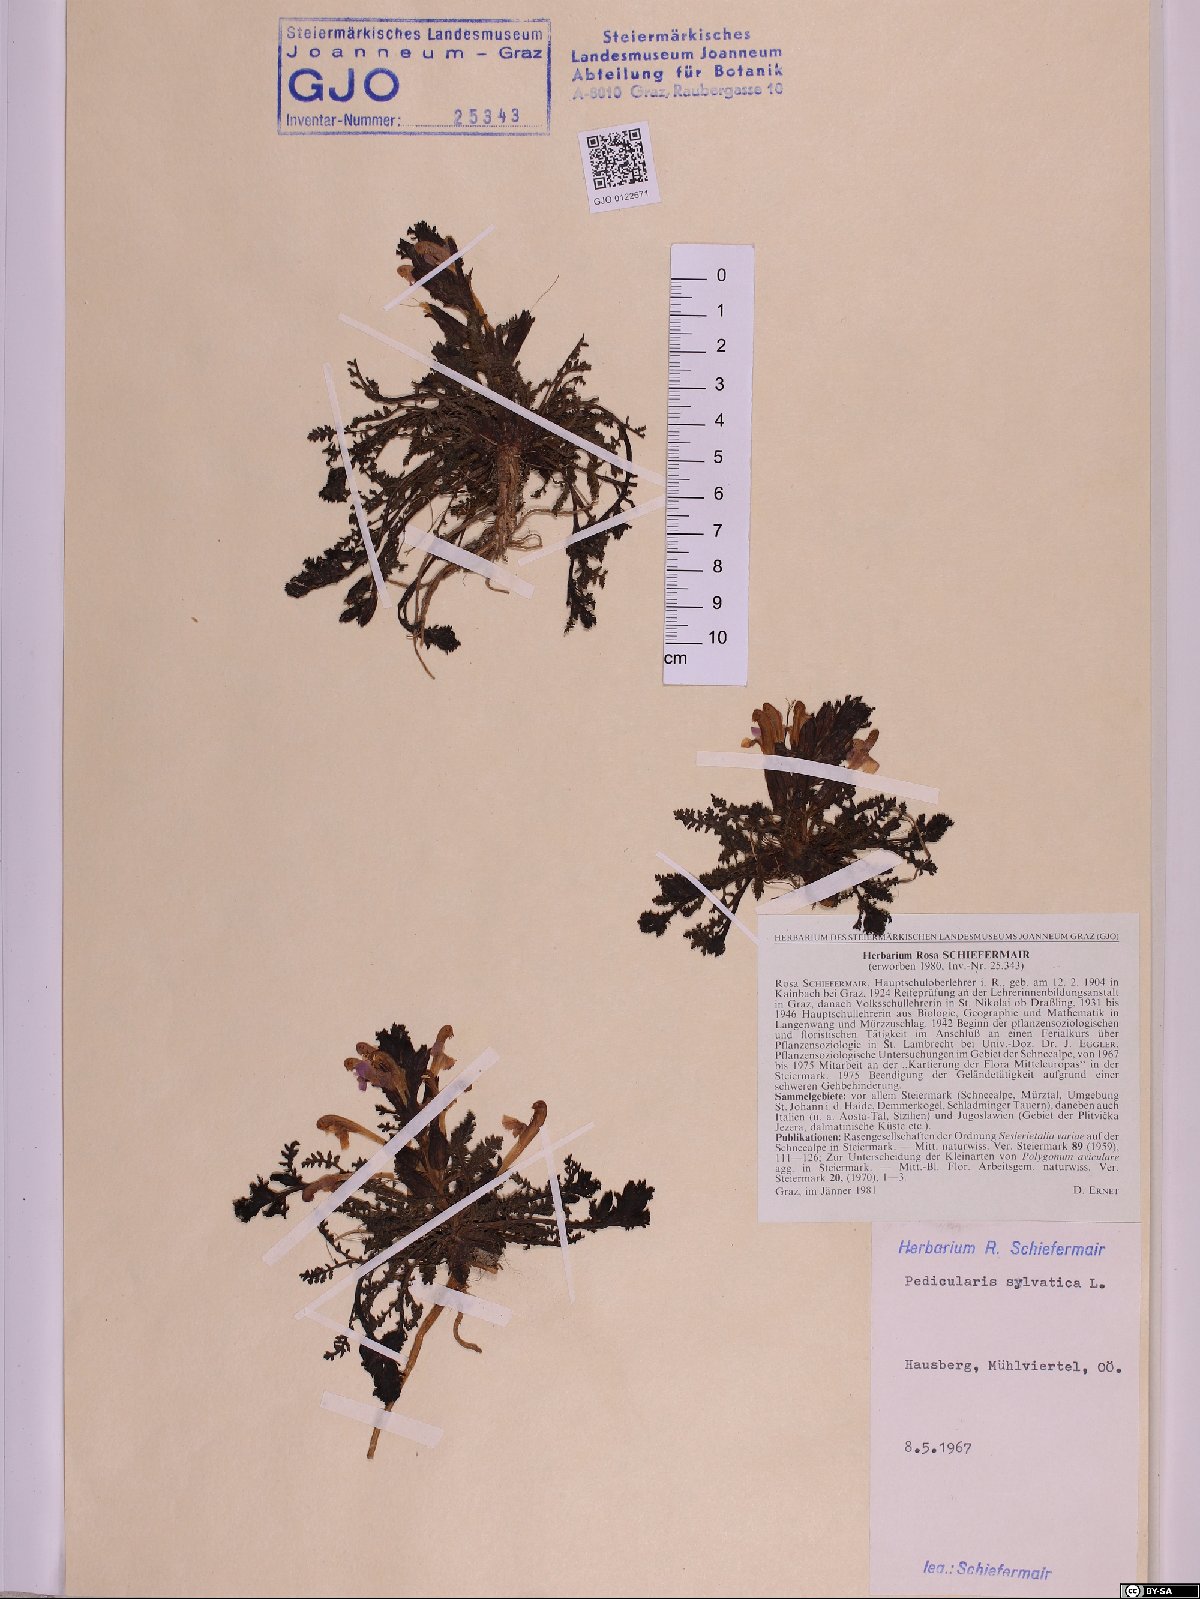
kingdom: Plantae
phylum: Tracheophyta
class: Magnoliopsida
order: Lamiales
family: Orobanchaceae
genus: Pedicularis
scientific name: Pedicularis sylvatica
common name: Lousewort
